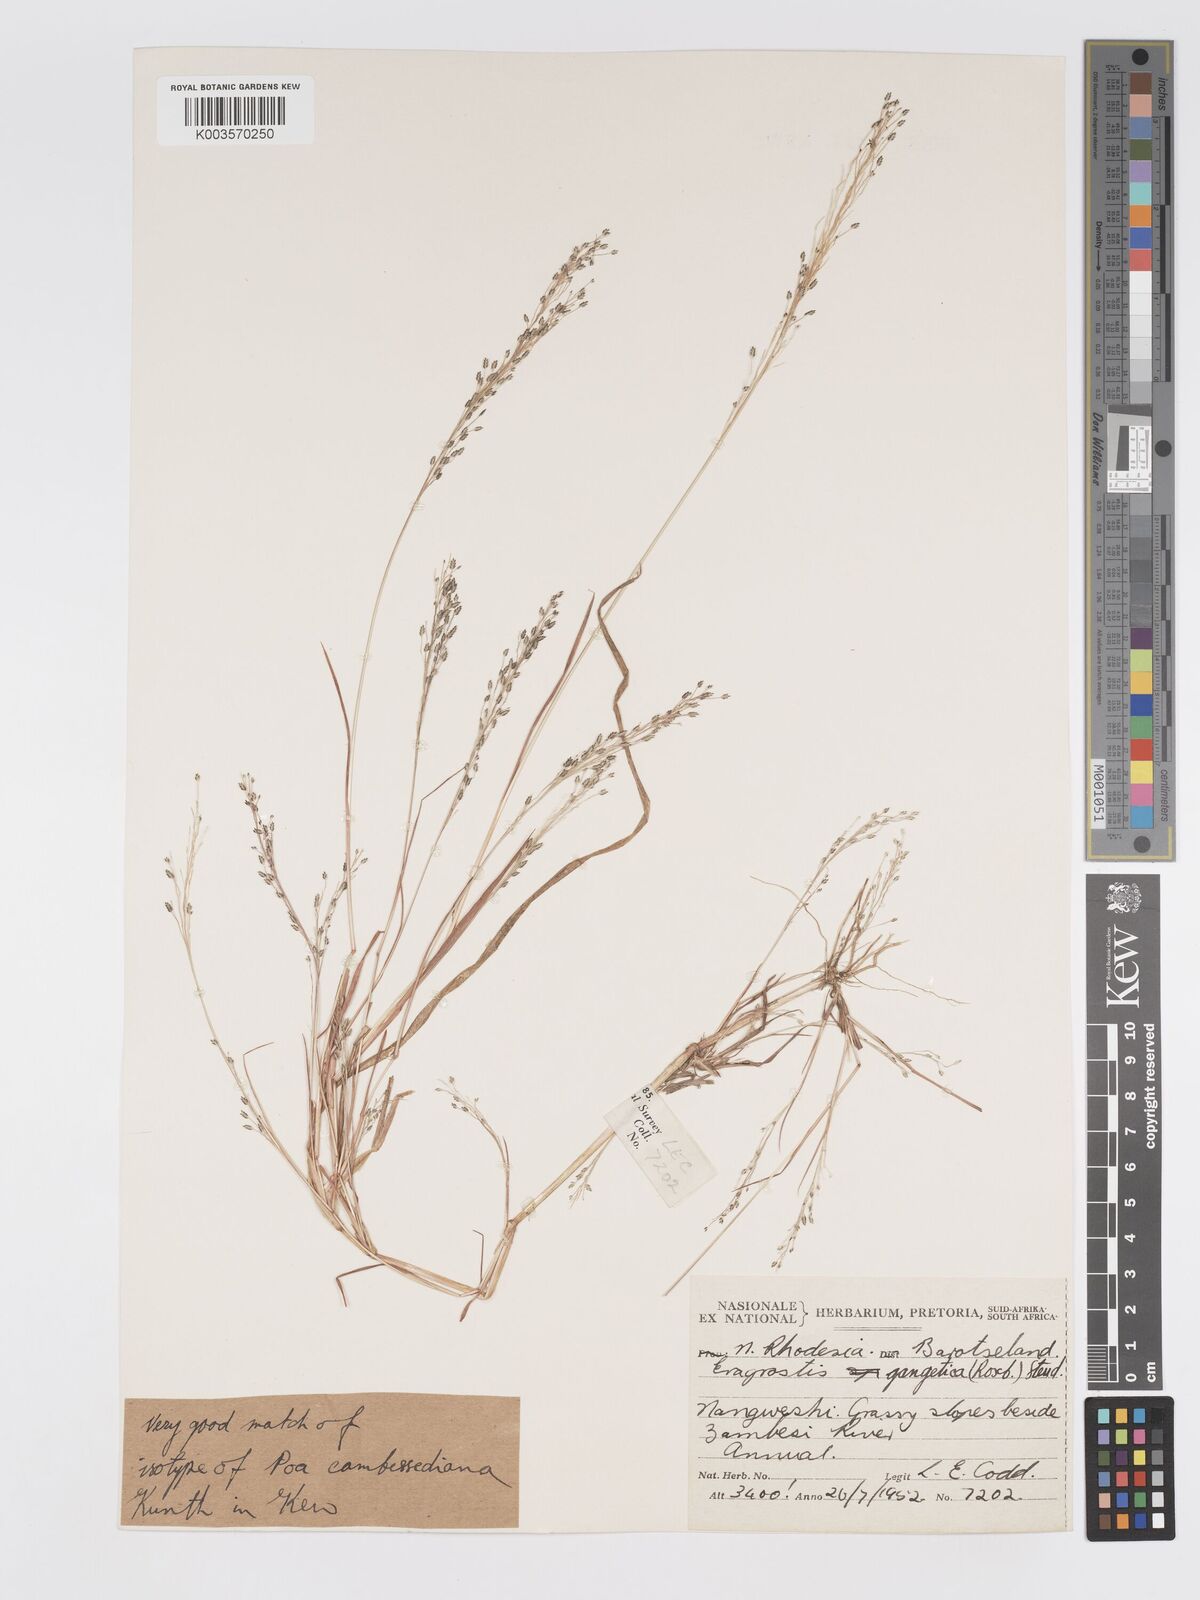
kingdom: Plantae
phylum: Tracheophyta
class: Liliopsida
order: Poales
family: Poaceae
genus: Eragrostis
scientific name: Eragrostis gangetica
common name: Slimflower lovegrass
